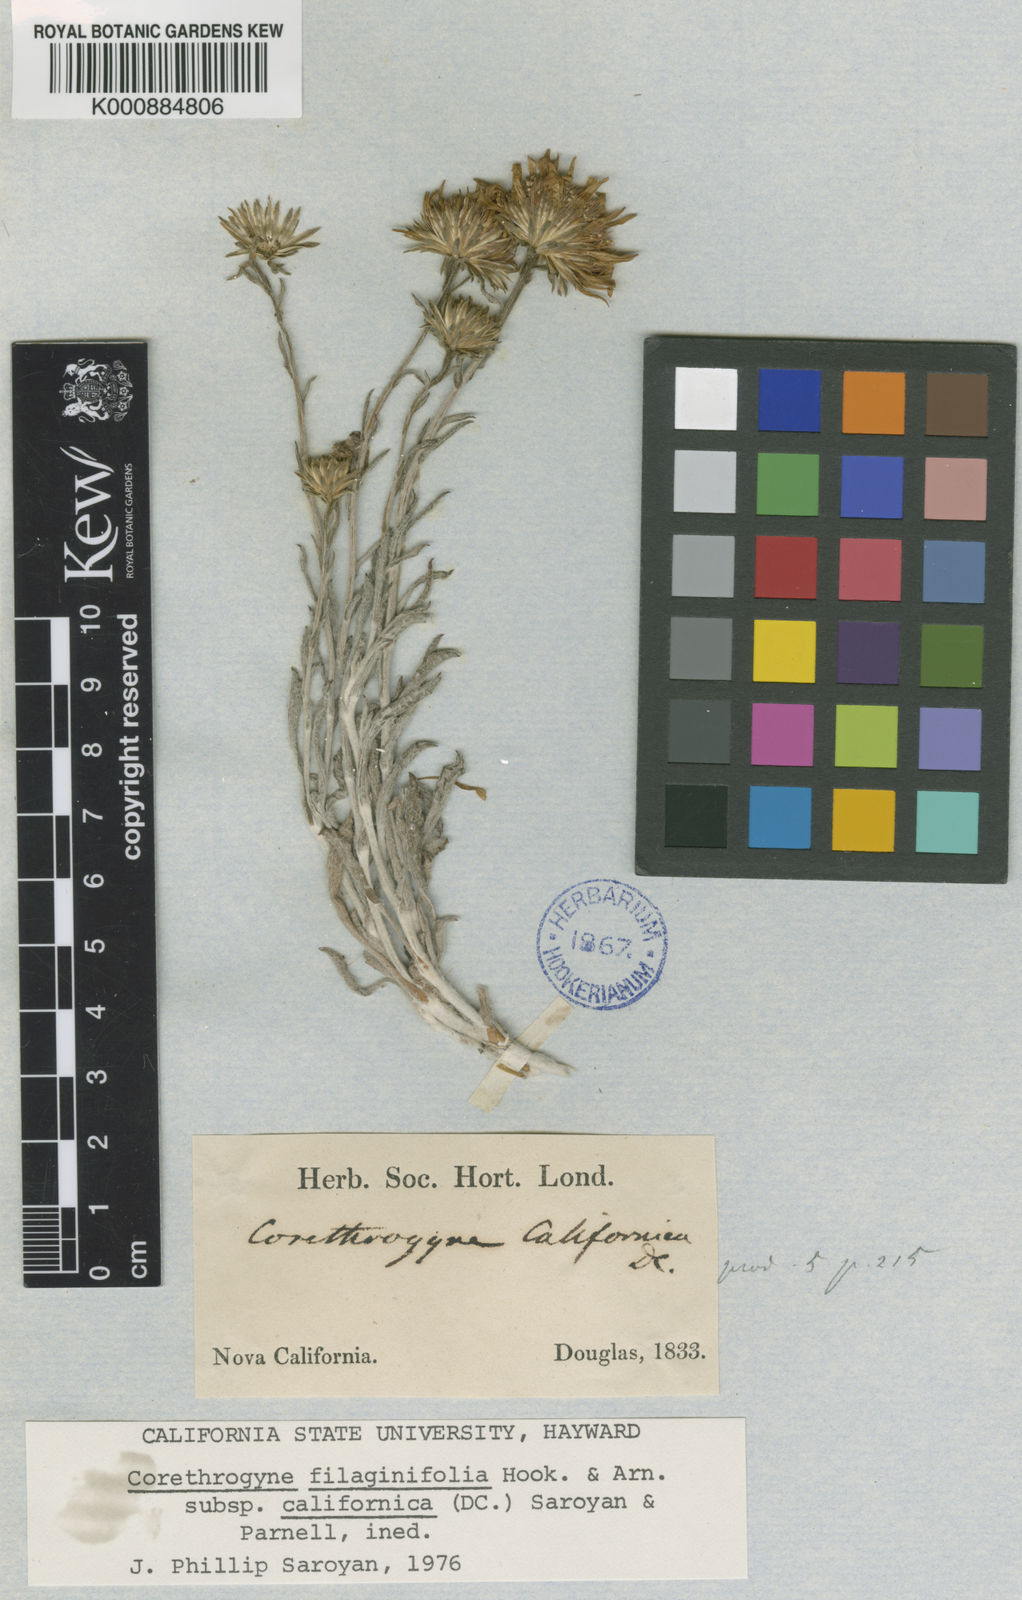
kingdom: Plantae
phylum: Tracheophyta
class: Magnoliopsida
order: Asterales
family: Asteraceae
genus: Corethrogyne
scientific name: Corethrogyne filaginifolia
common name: Sand-aster
